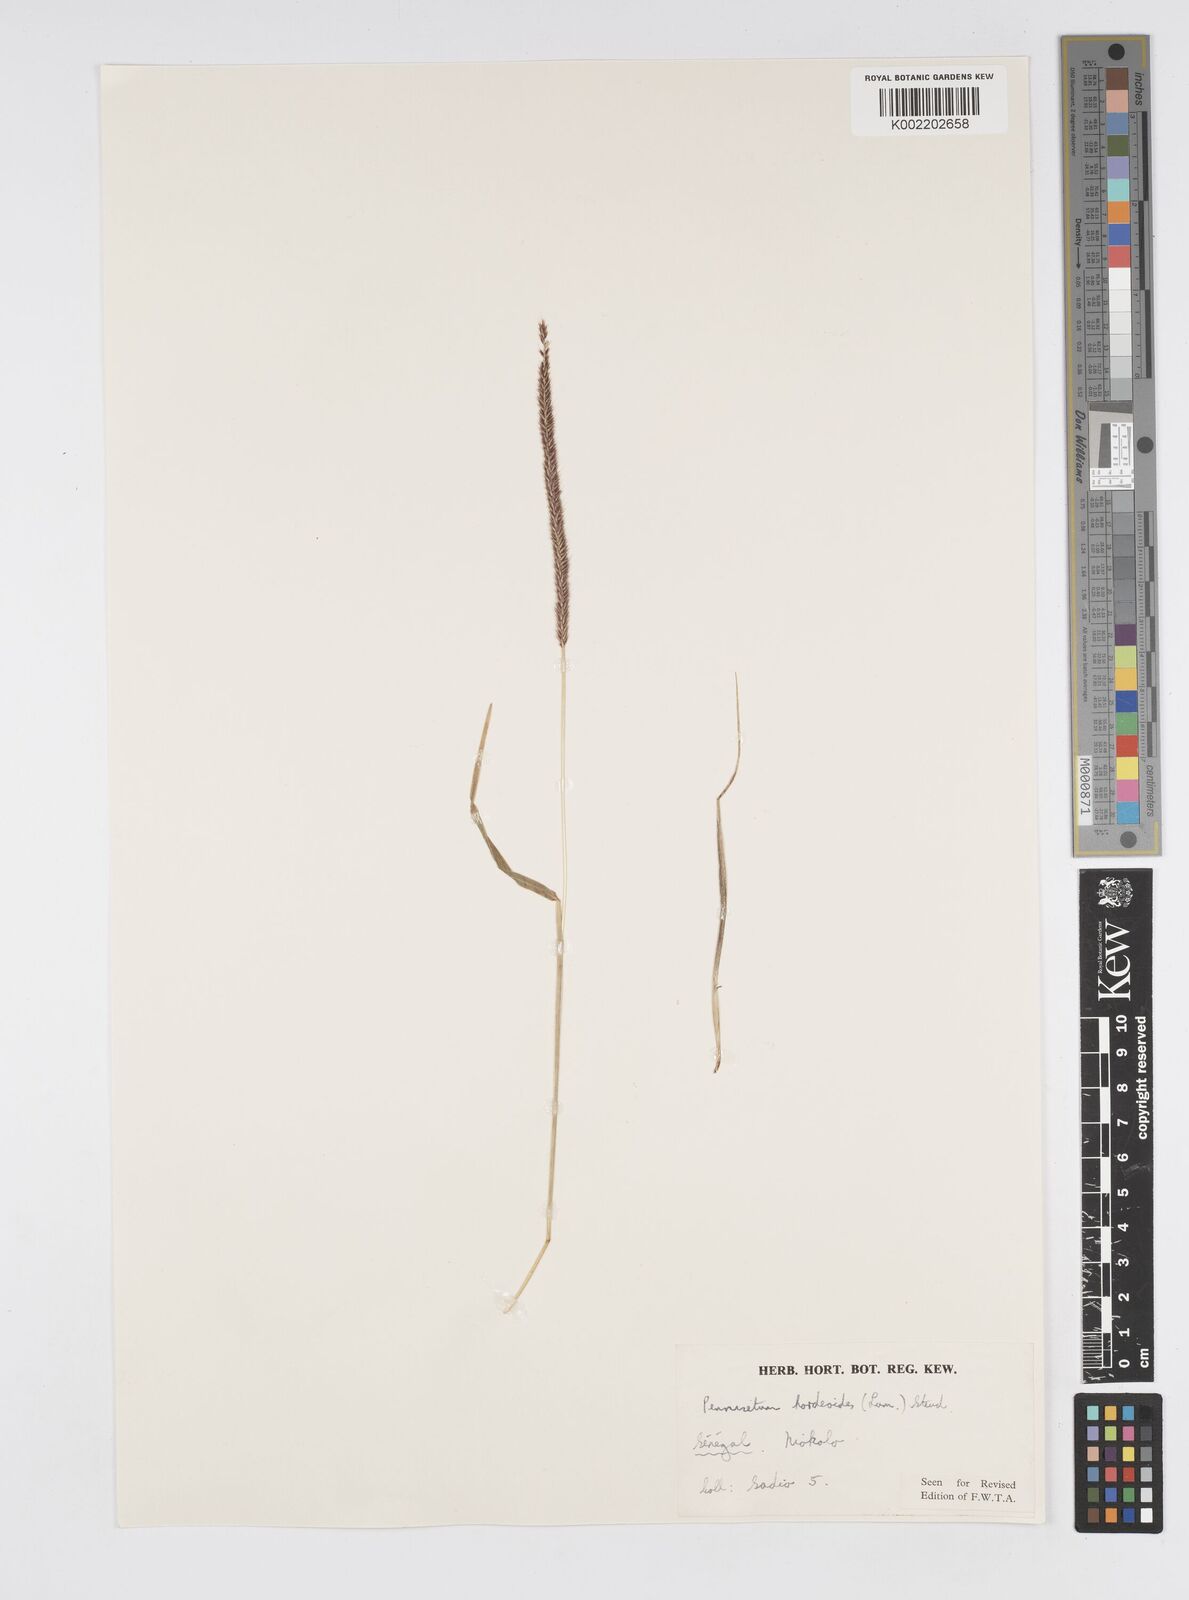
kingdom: Plantae
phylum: Tracheophyta
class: Liliopsida
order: Poales
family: Poaceae
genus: Cenchrus
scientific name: Cenchrus hordeoides
